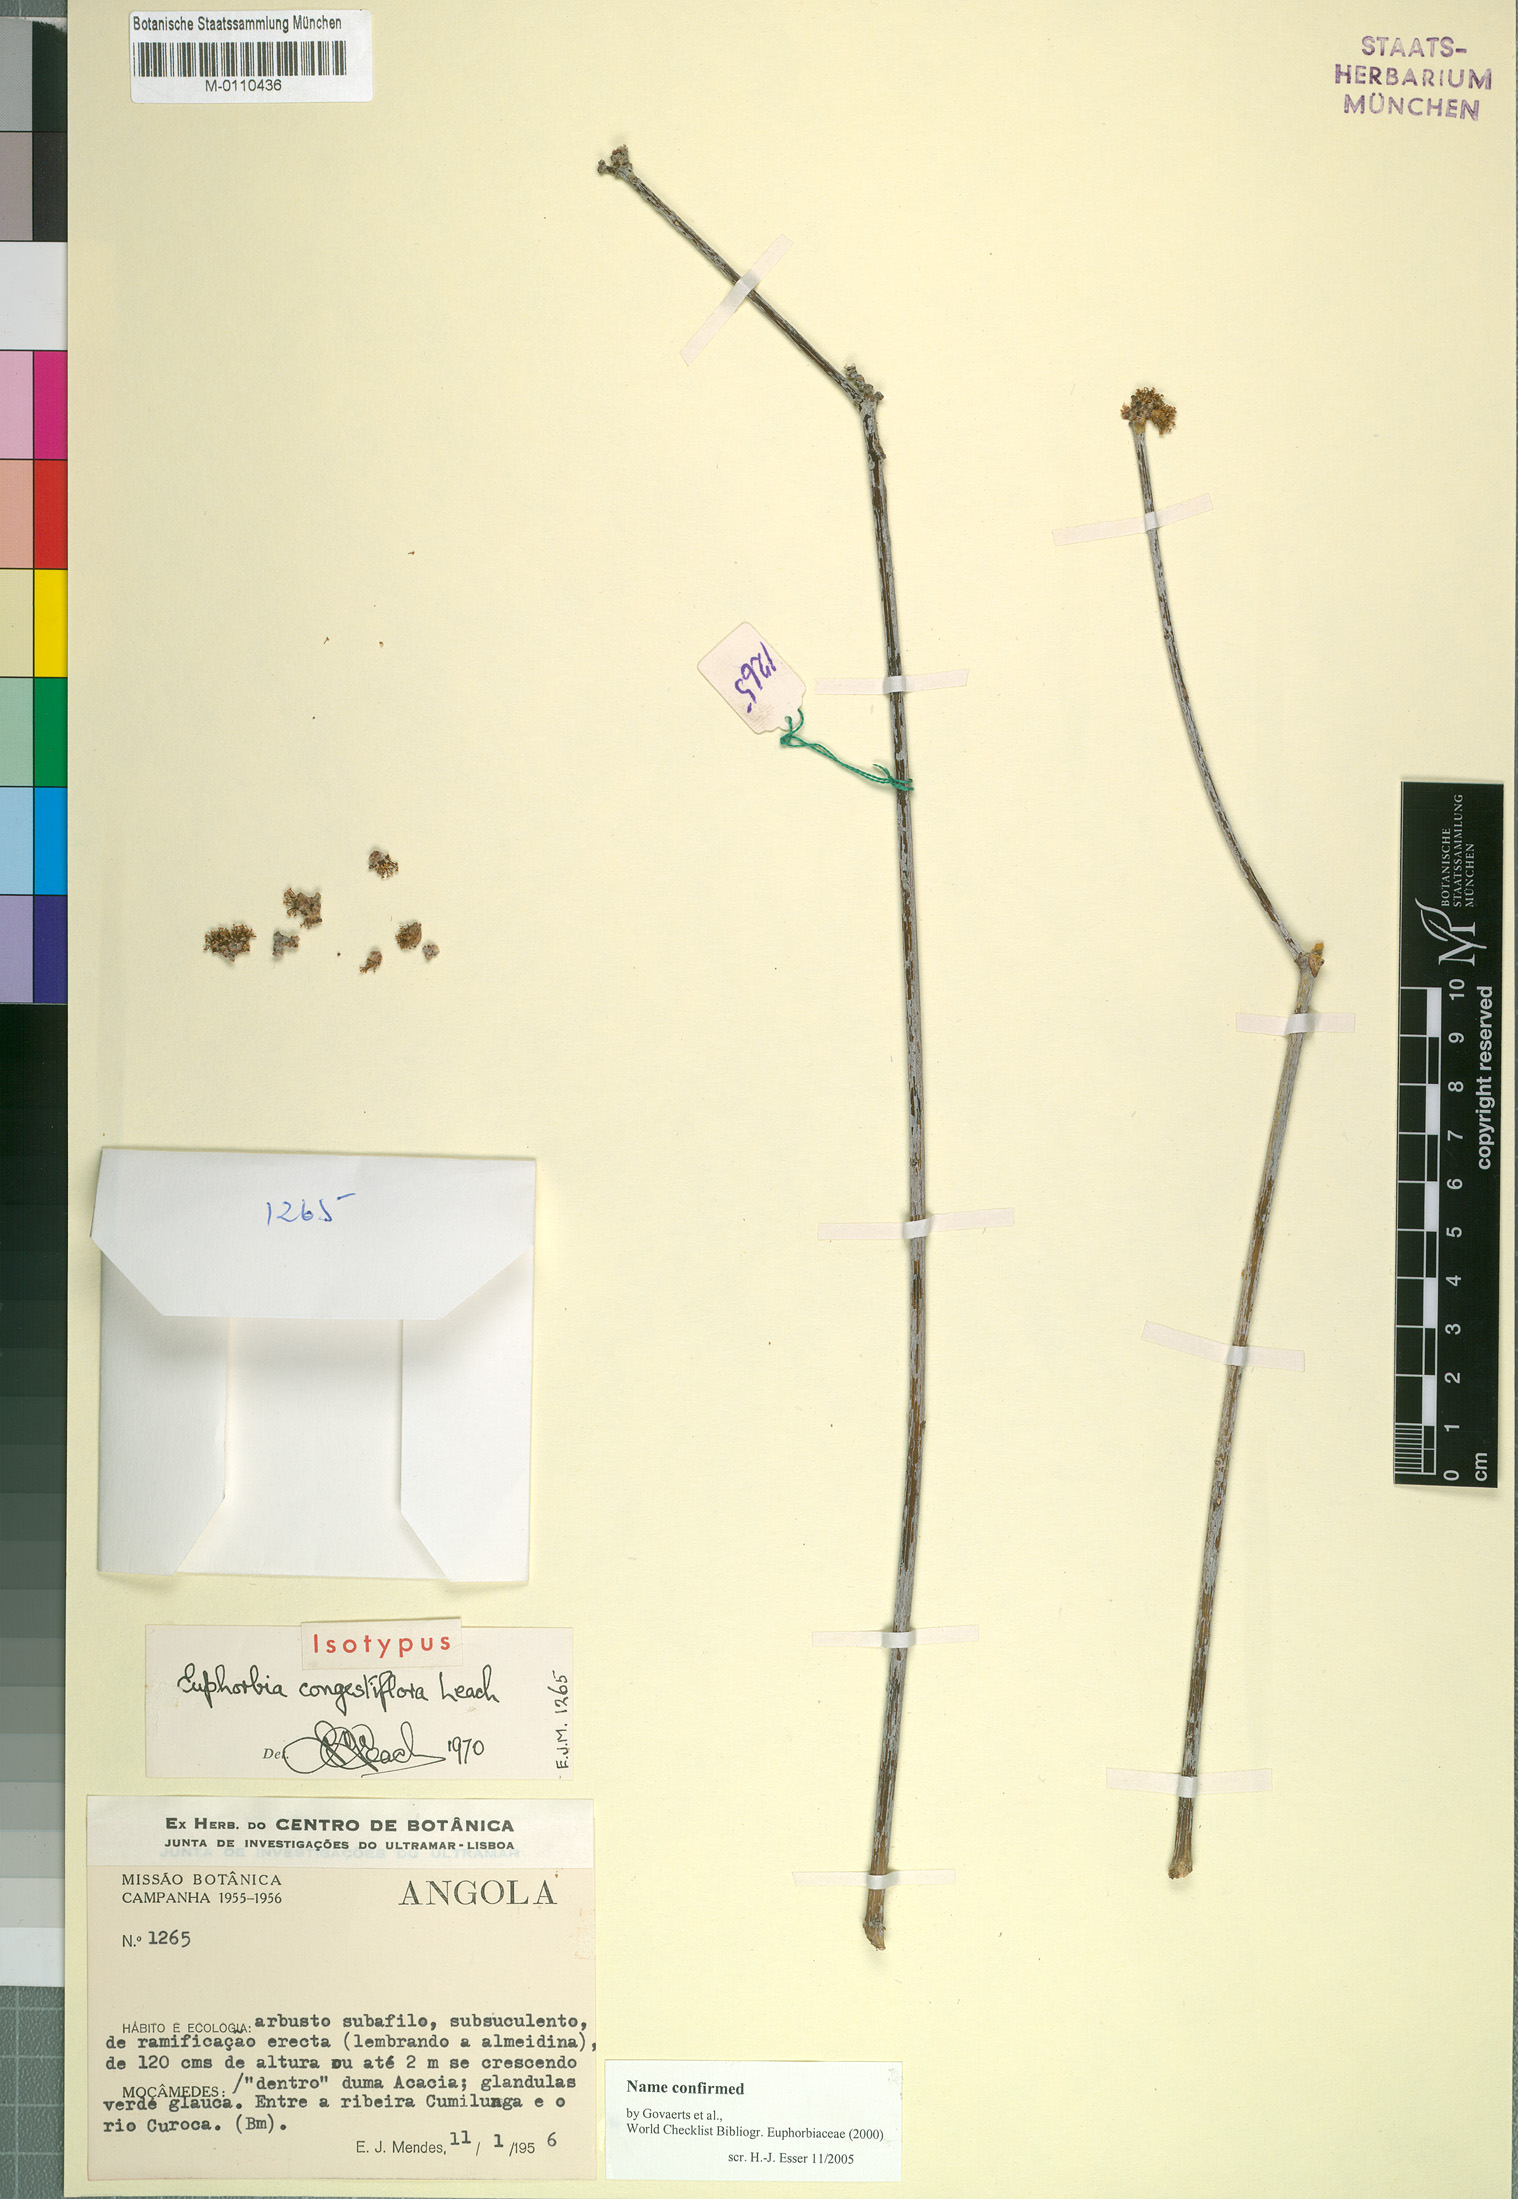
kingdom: Plantae
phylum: Tracheophyta
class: Magnoliopsida
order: Malpighiales
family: Euphorbiaceae
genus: Euphorbia
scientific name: Euphorbia congestiflora
